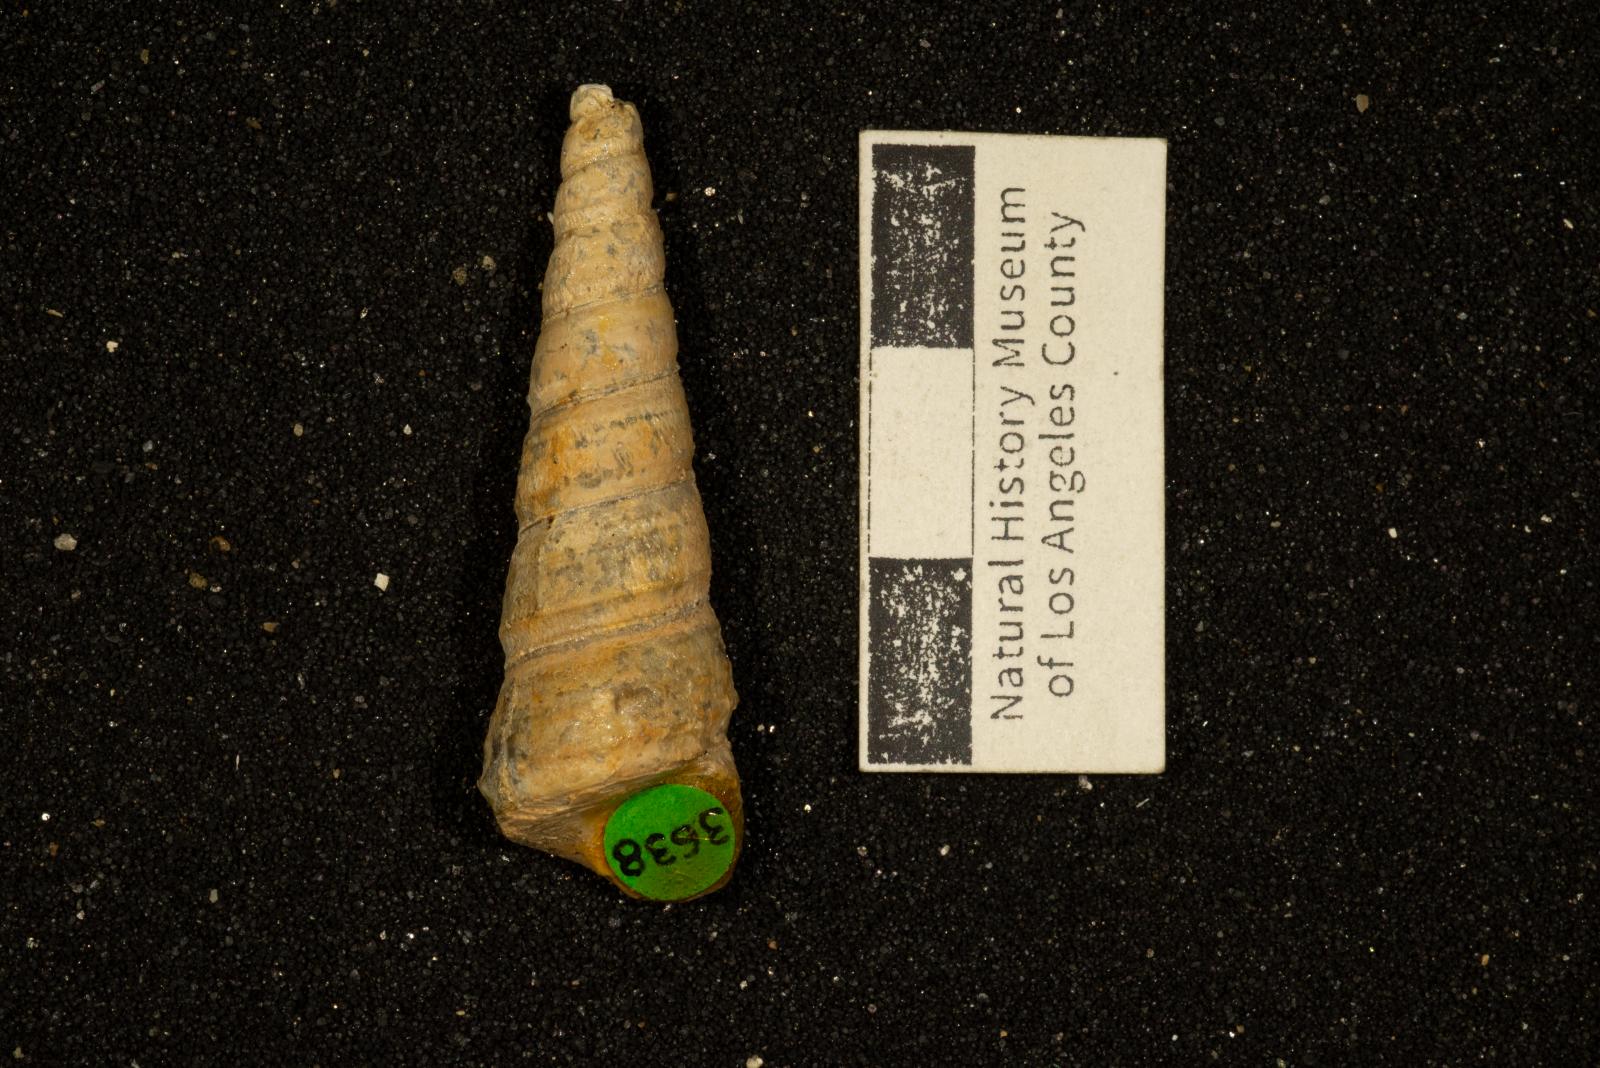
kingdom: Animalia
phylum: Mollusca
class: Gastropoda
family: Turritellidae
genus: Turritella
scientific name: Turritella chicoensis
